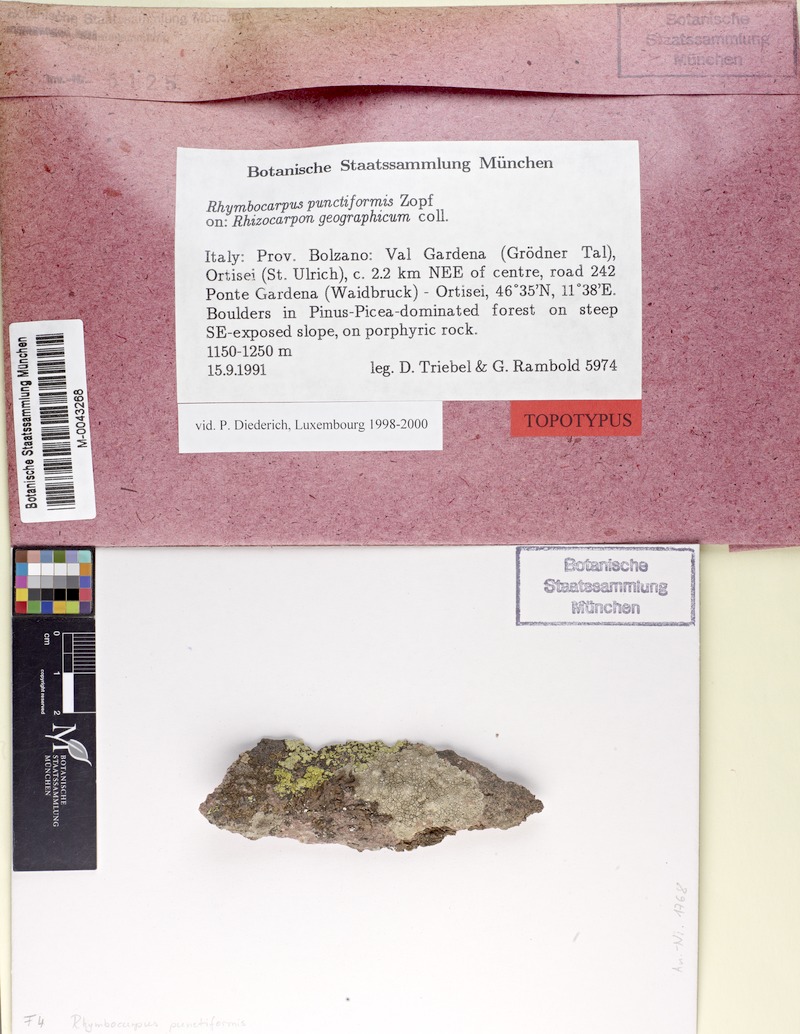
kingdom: Fungi
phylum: Ascomycota
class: Leotiomycetes
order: Helotiales
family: Cordieritidaceae
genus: Rhymbocarpus
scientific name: Rhymbocarpus geographici
